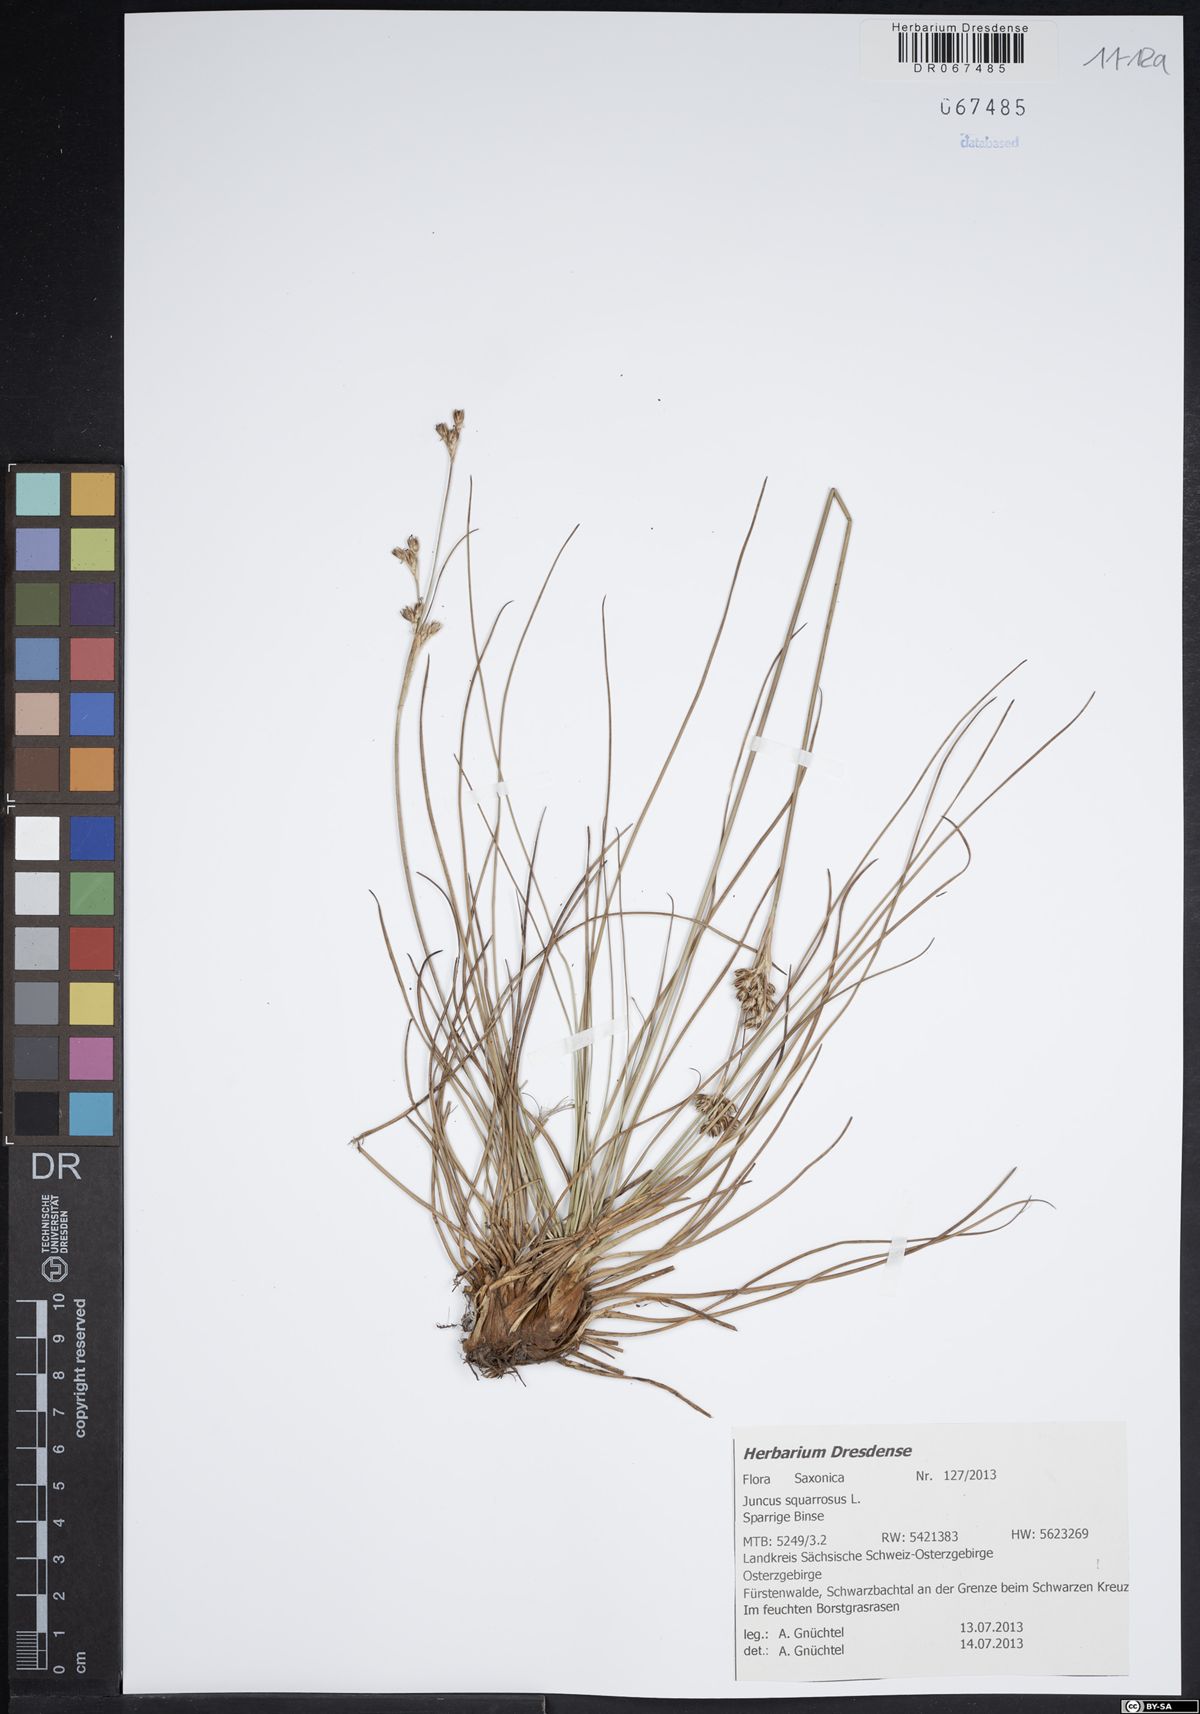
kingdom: Plantae
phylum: Tracheophyta
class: Liliopsida
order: Poales
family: Juncaceae
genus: Juncus
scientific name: Juncus squarrosus
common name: Heath rush
